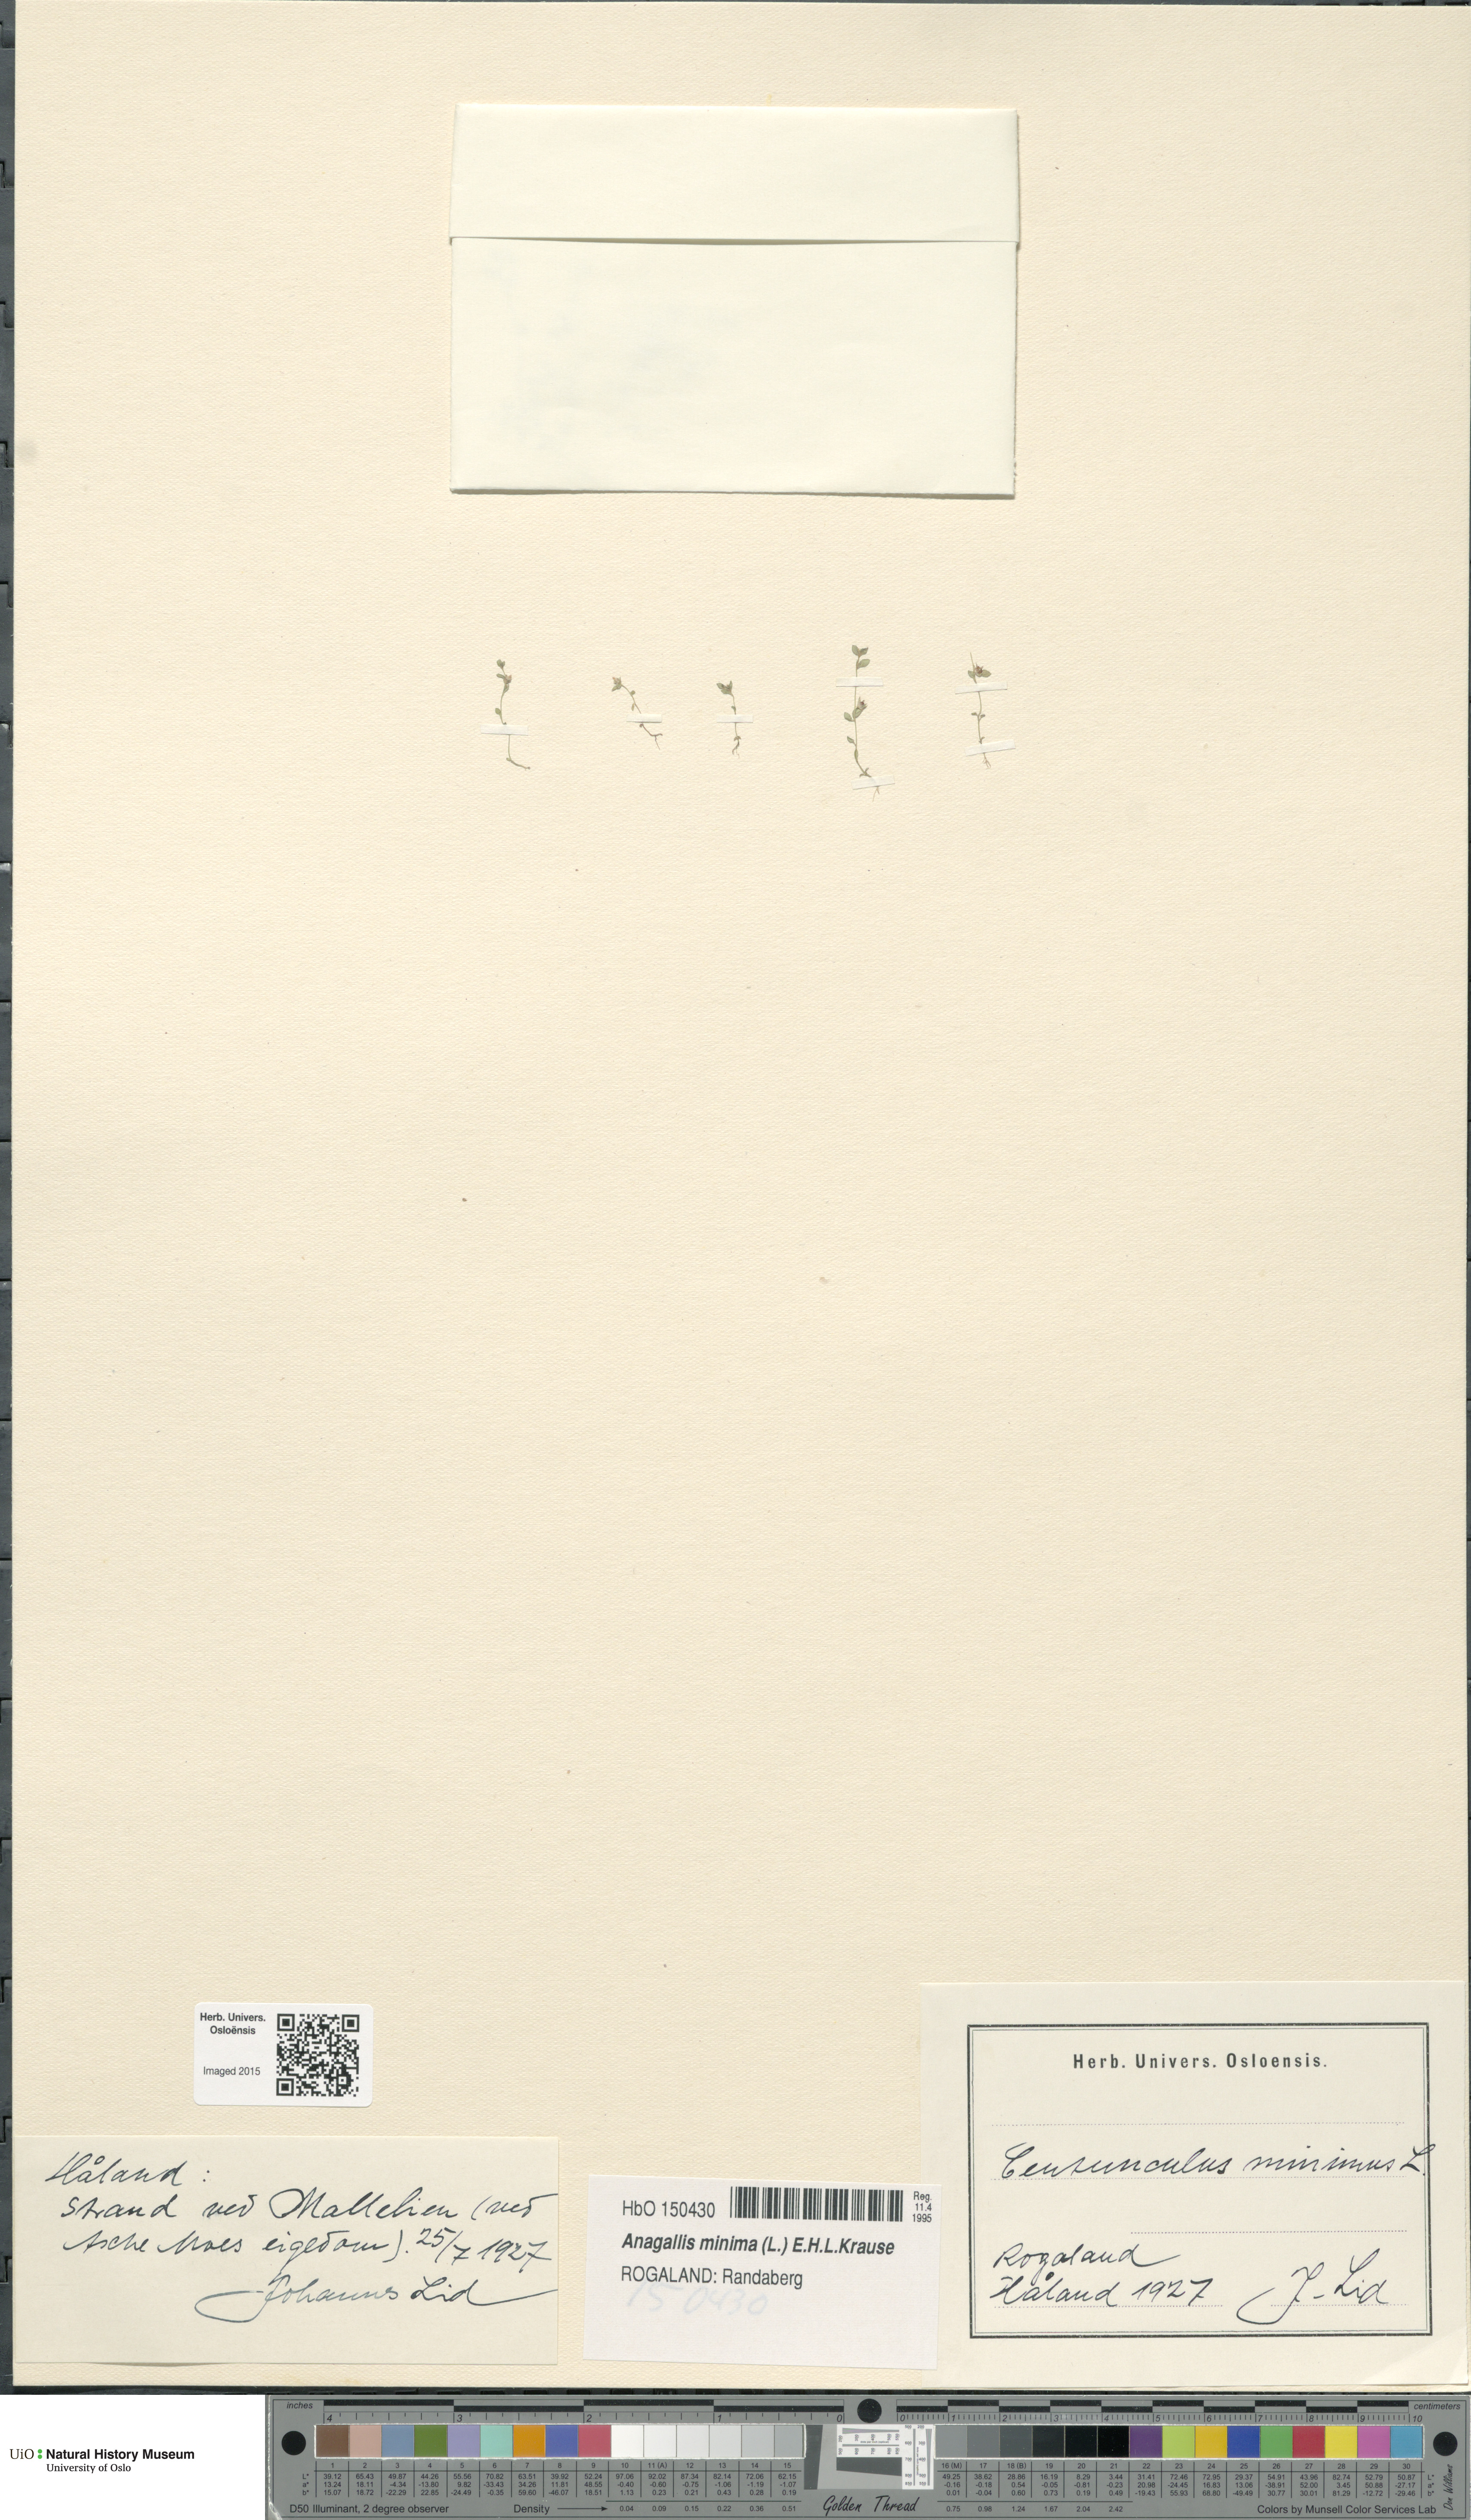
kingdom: Plantae
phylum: Tracheophyta
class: Magnoliopsida
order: Ericales
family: Primulaceae
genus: Lysimachia
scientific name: Lysimachia minima
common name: Chaffweed
